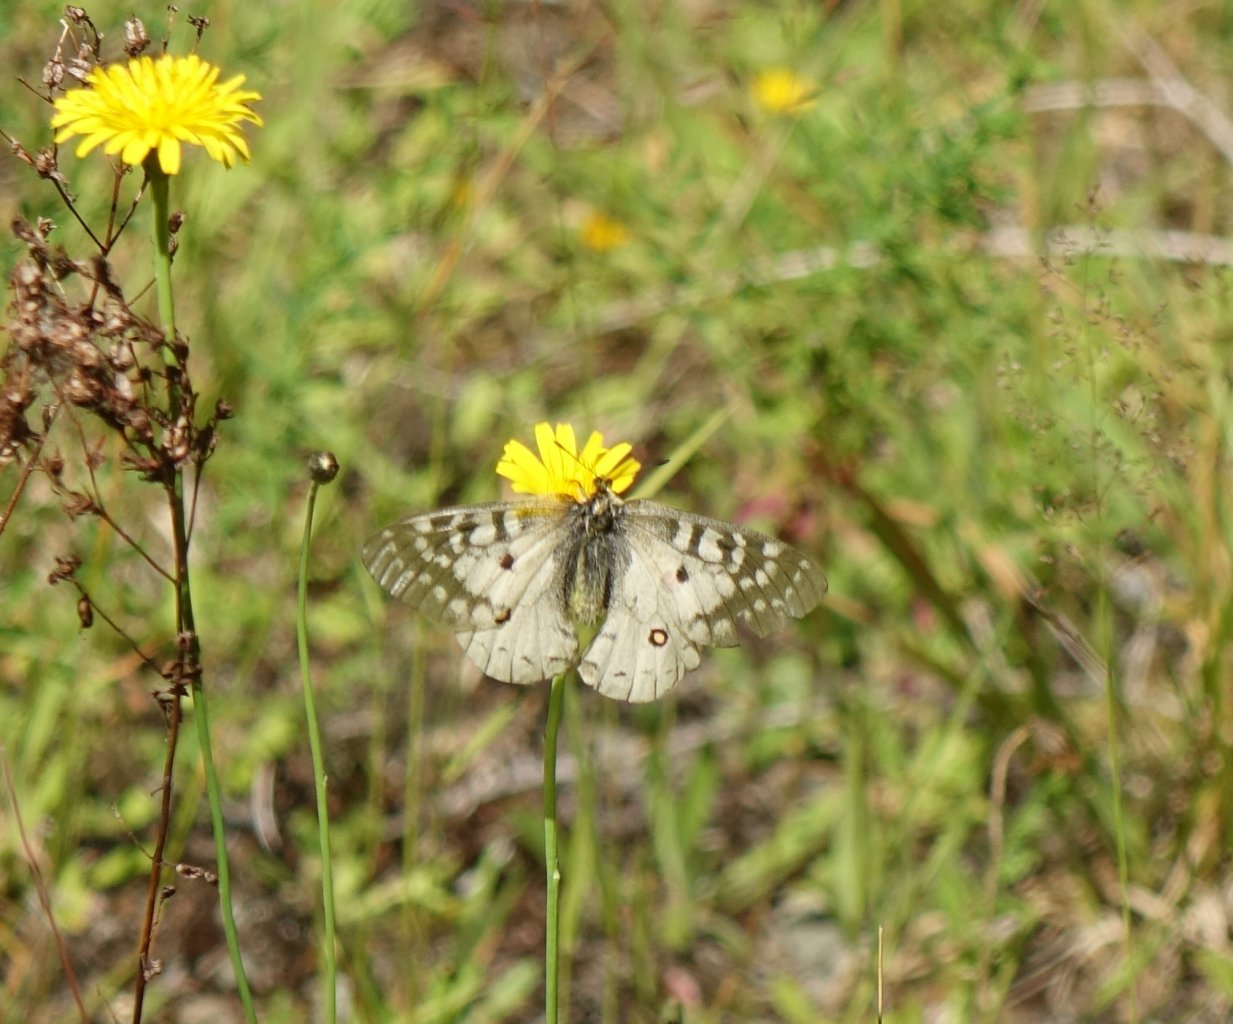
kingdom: Animalia
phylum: Arthropoda
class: Insecta
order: Lepidoptera
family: Papilionidae
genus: Parnassius
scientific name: Parnassius clodius
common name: Clodius Parnassian
